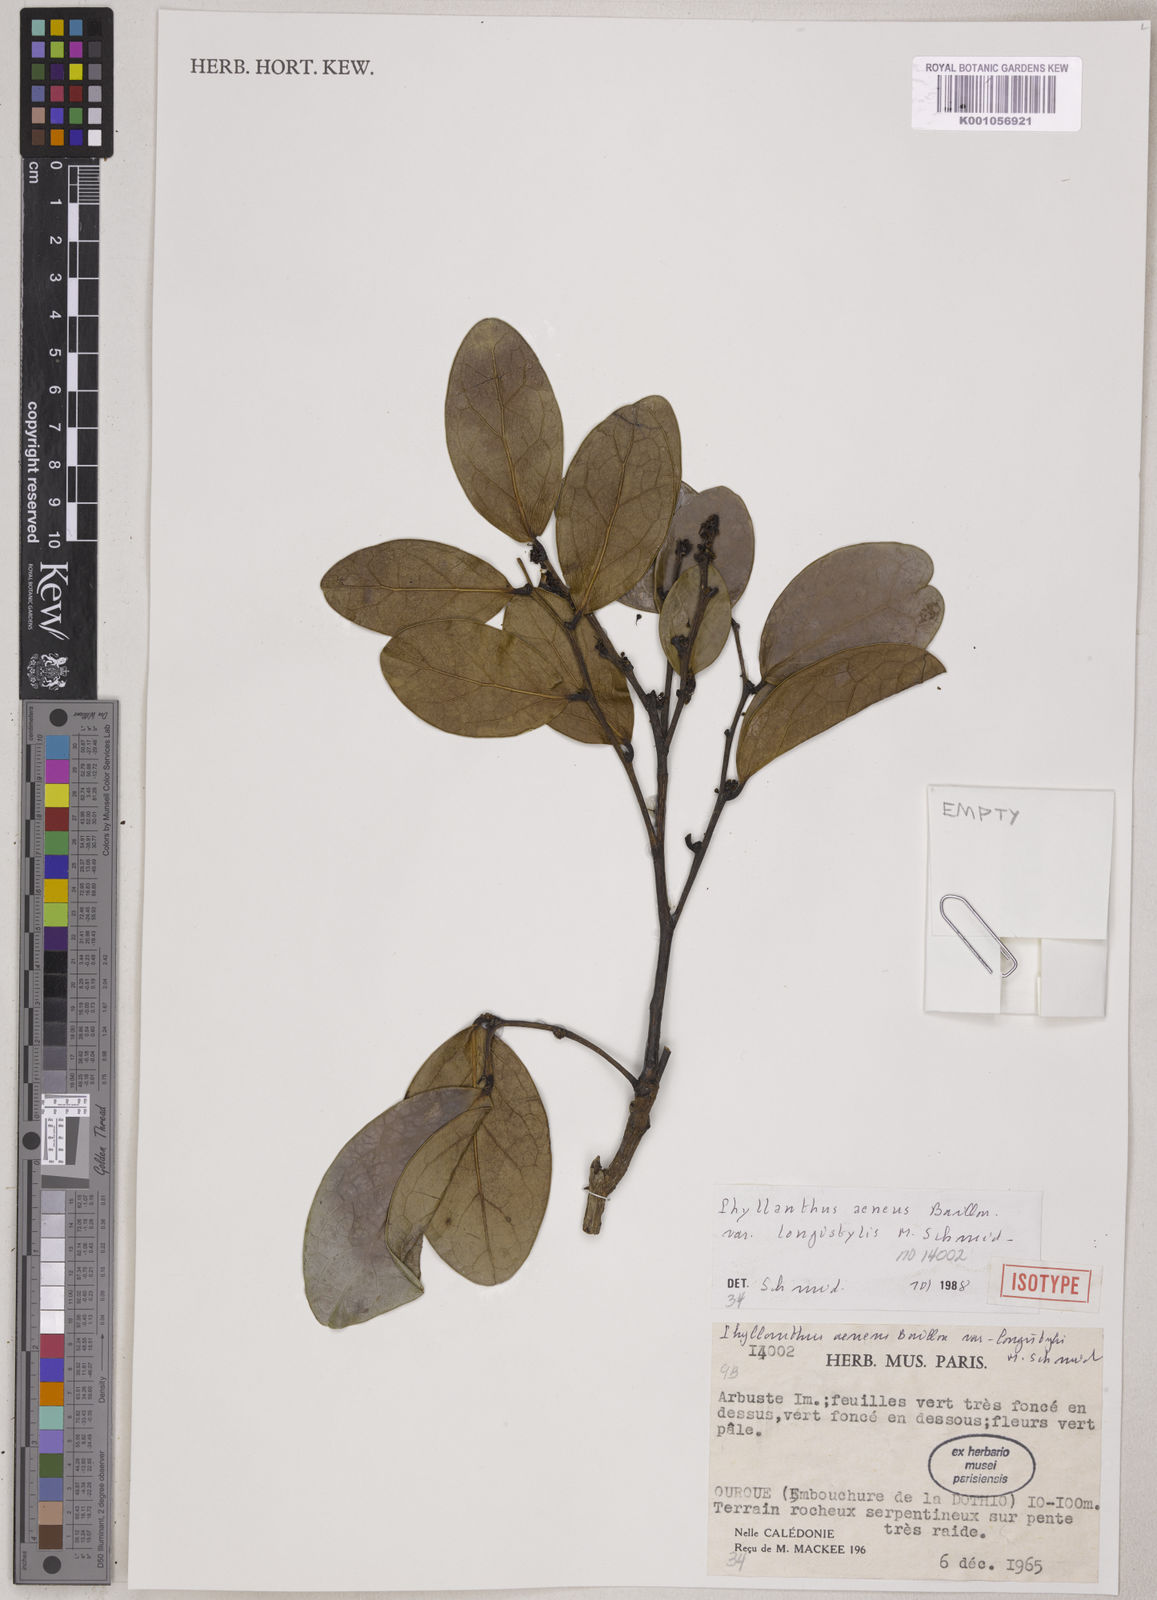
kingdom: Plantae
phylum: Tracheophyta
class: Magnoliopsida
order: Malpighiales
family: Phyllanthaceae
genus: Phyllanthus
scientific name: Phyllanthus aeneus
